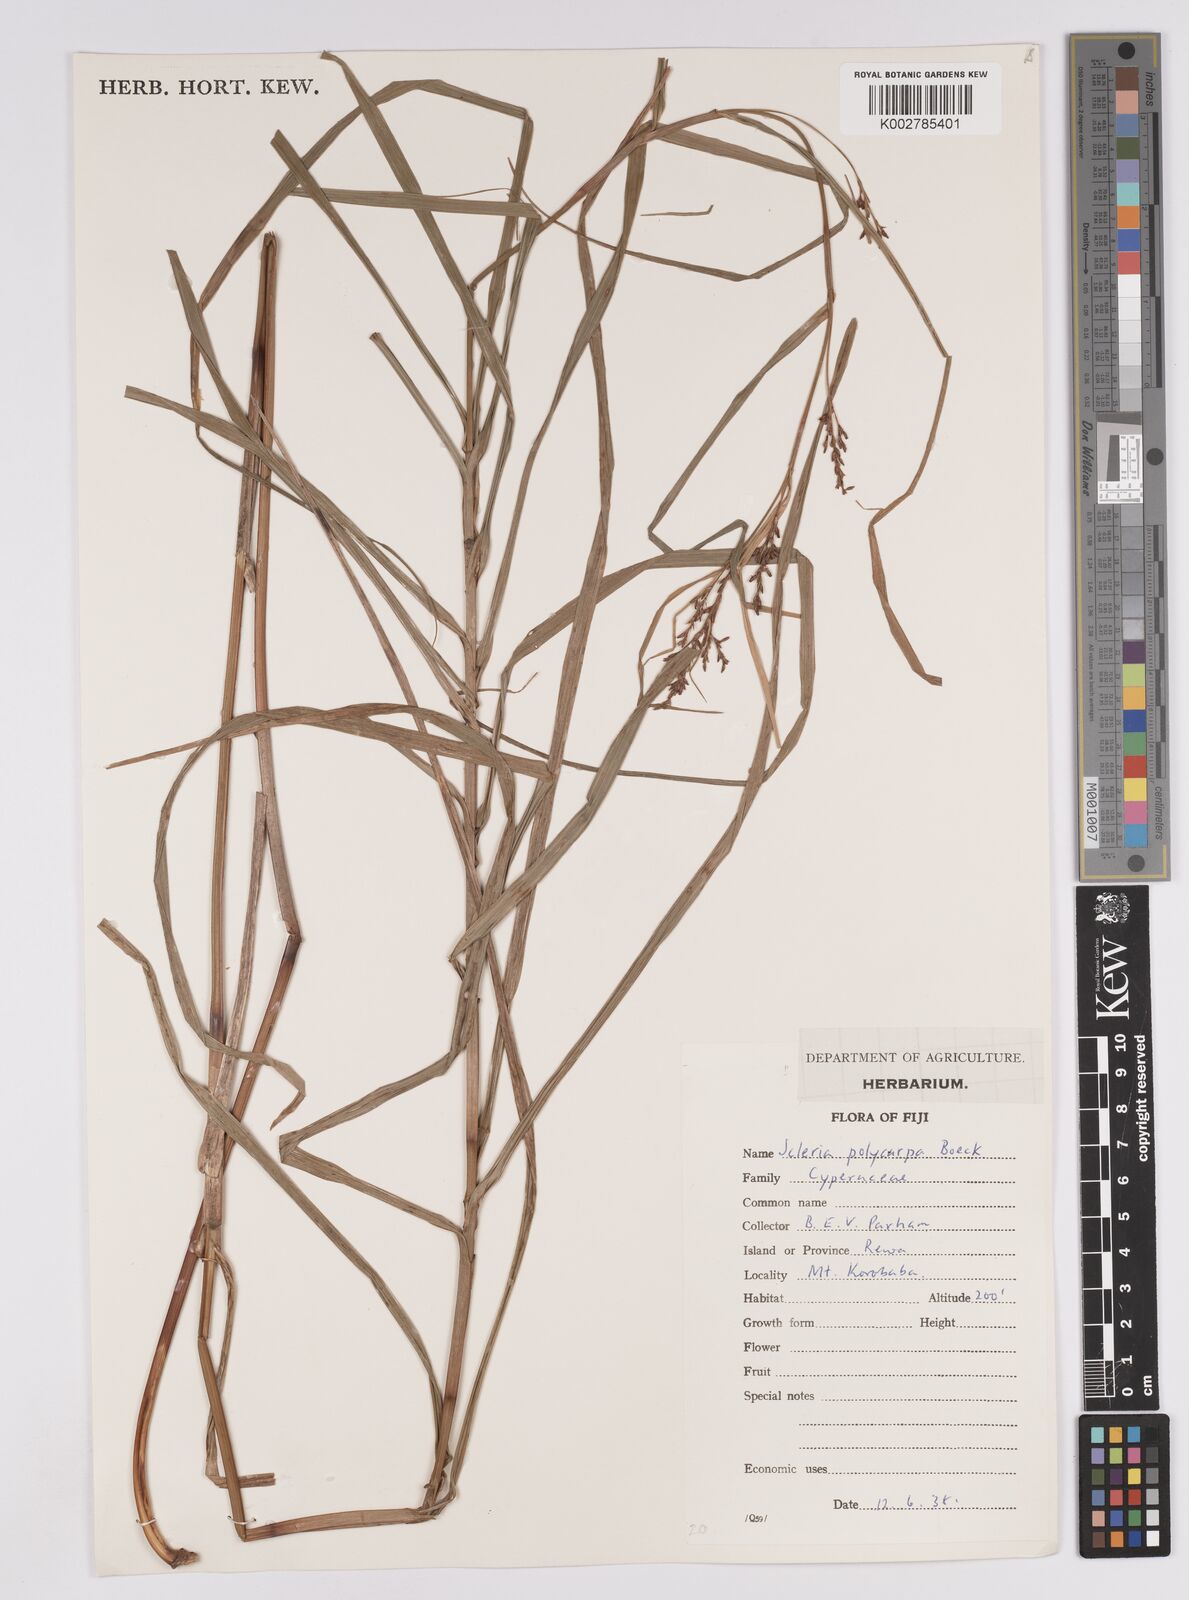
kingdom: Plantae
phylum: Tracheophyta
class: Liliopsida
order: Poales
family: Cyperaceae
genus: Scleria
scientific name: Scleria polycarpa
